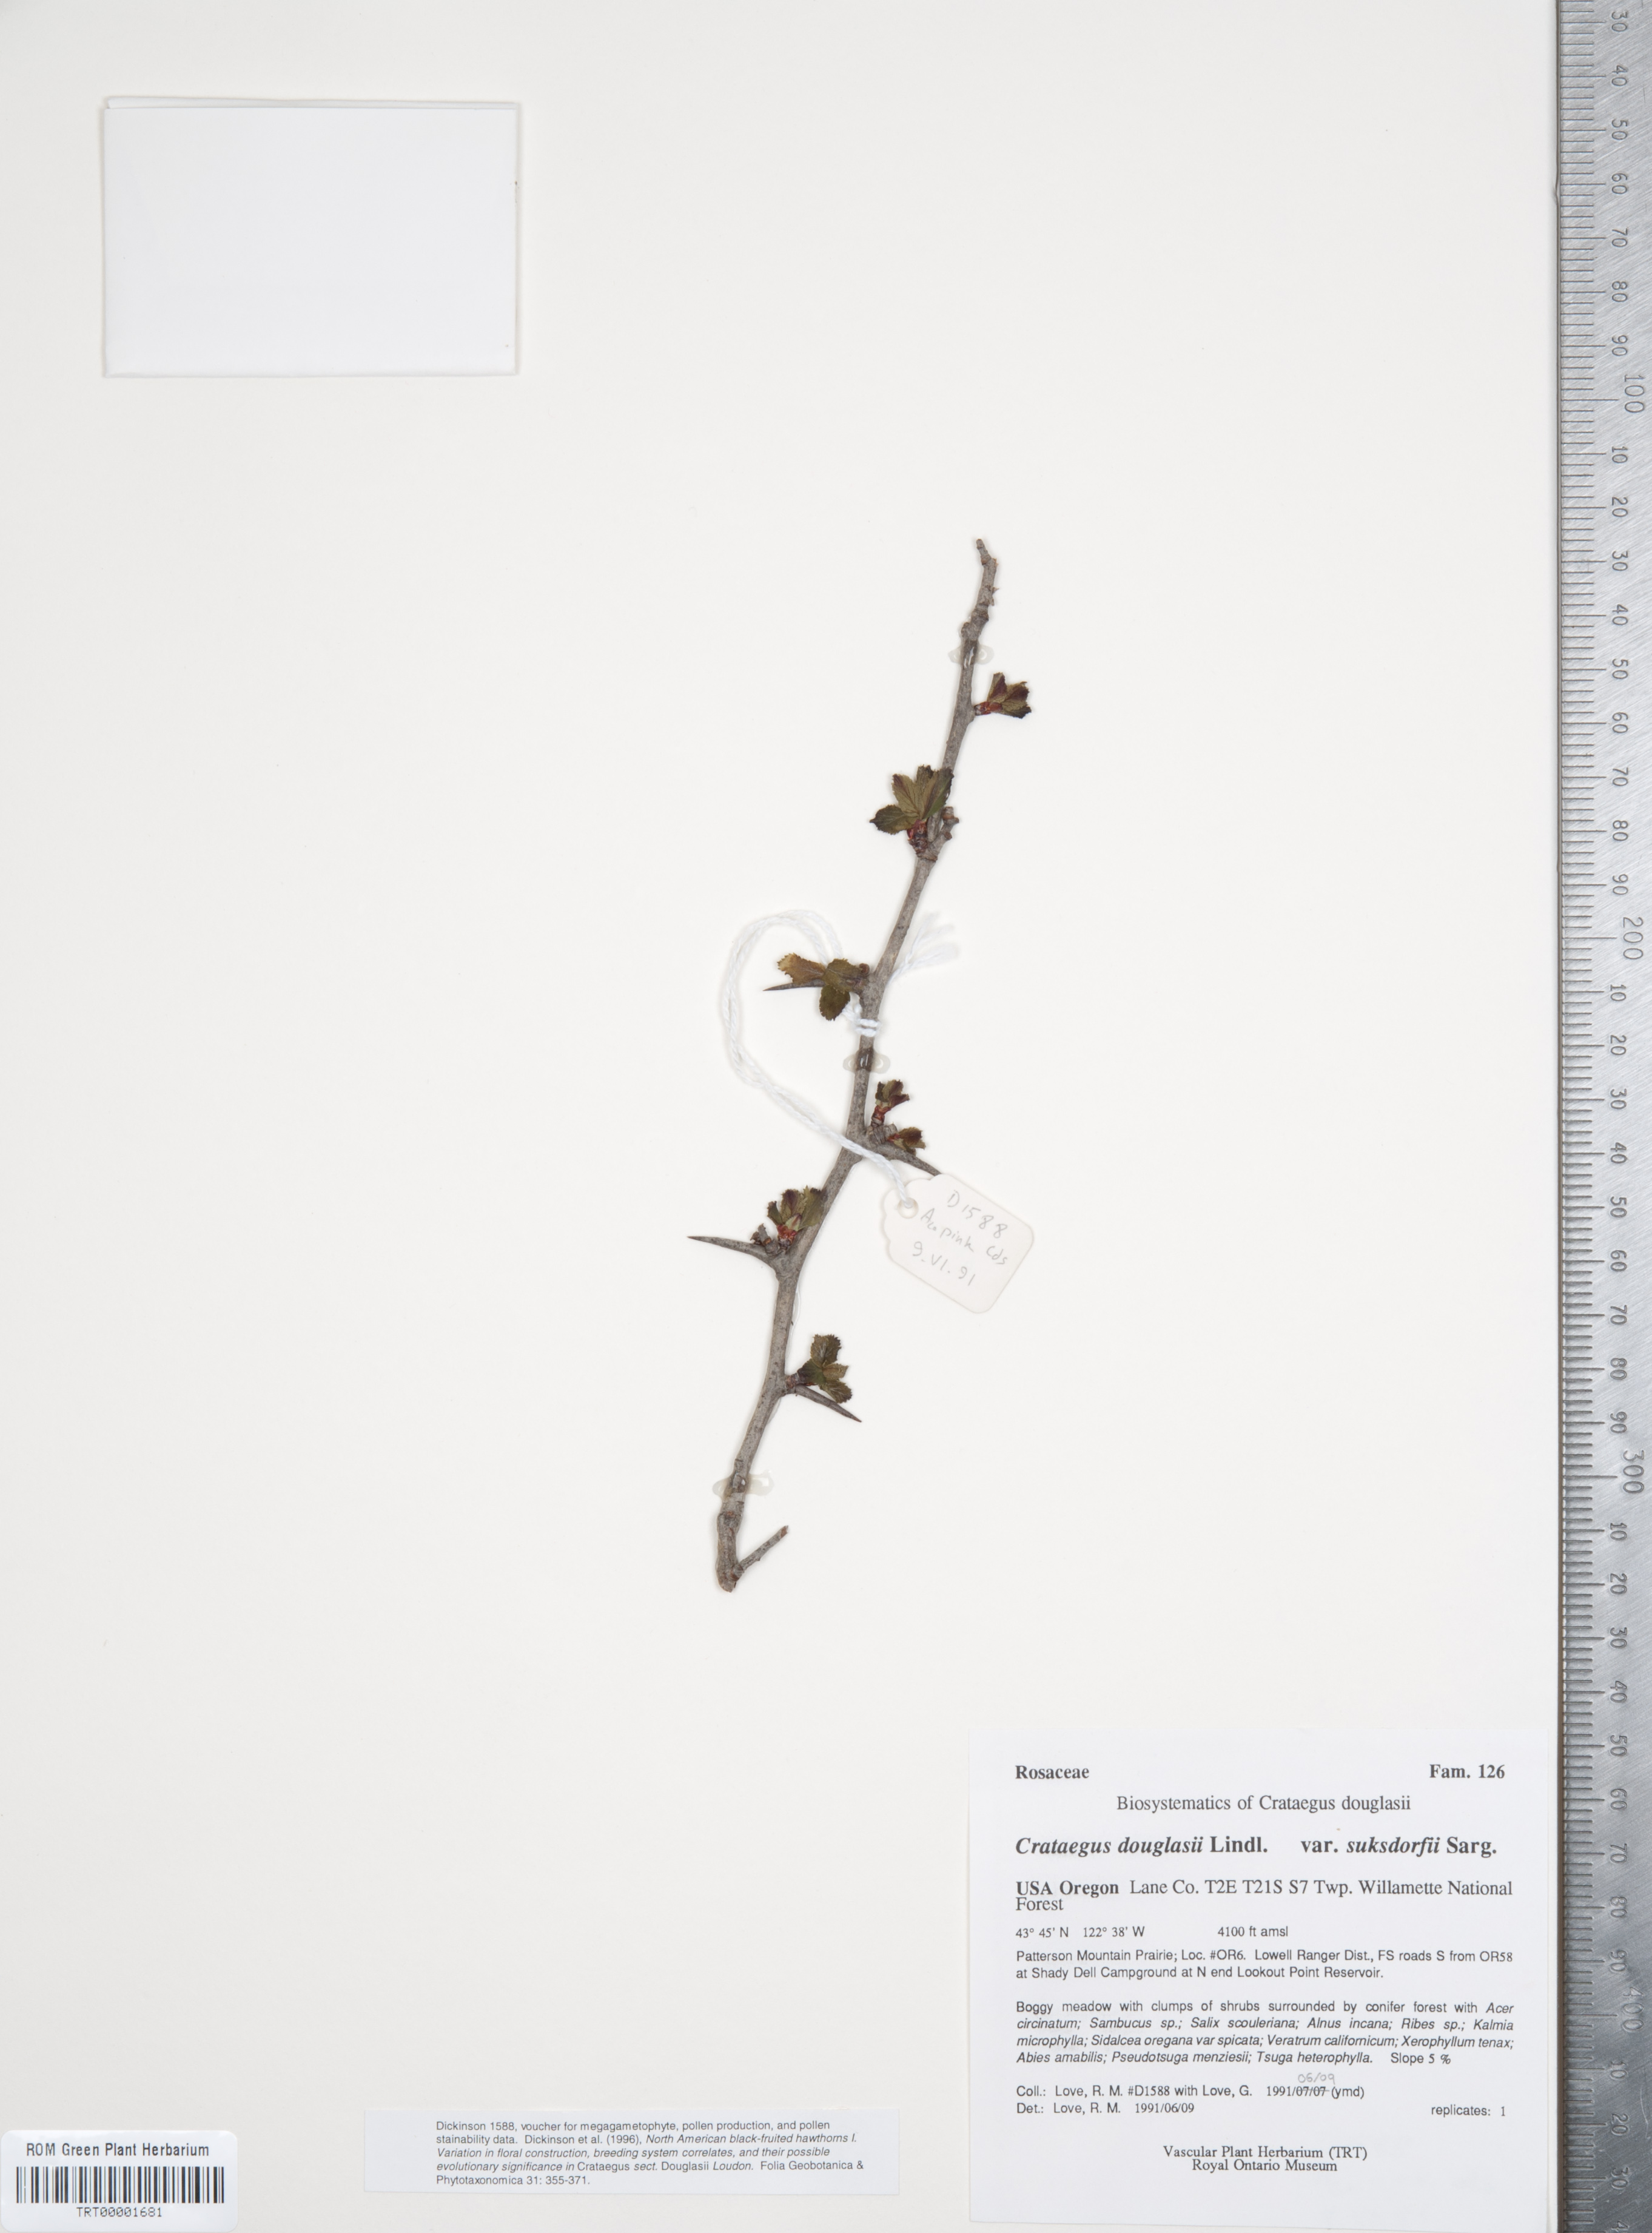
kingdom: Plantae
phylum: Tracheophyta
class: Magnoliopsida
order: Rosales
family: Rosaceae
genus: Crataegus
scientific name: Crataegus gaylussacia
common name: Huckleberry hawthorn
